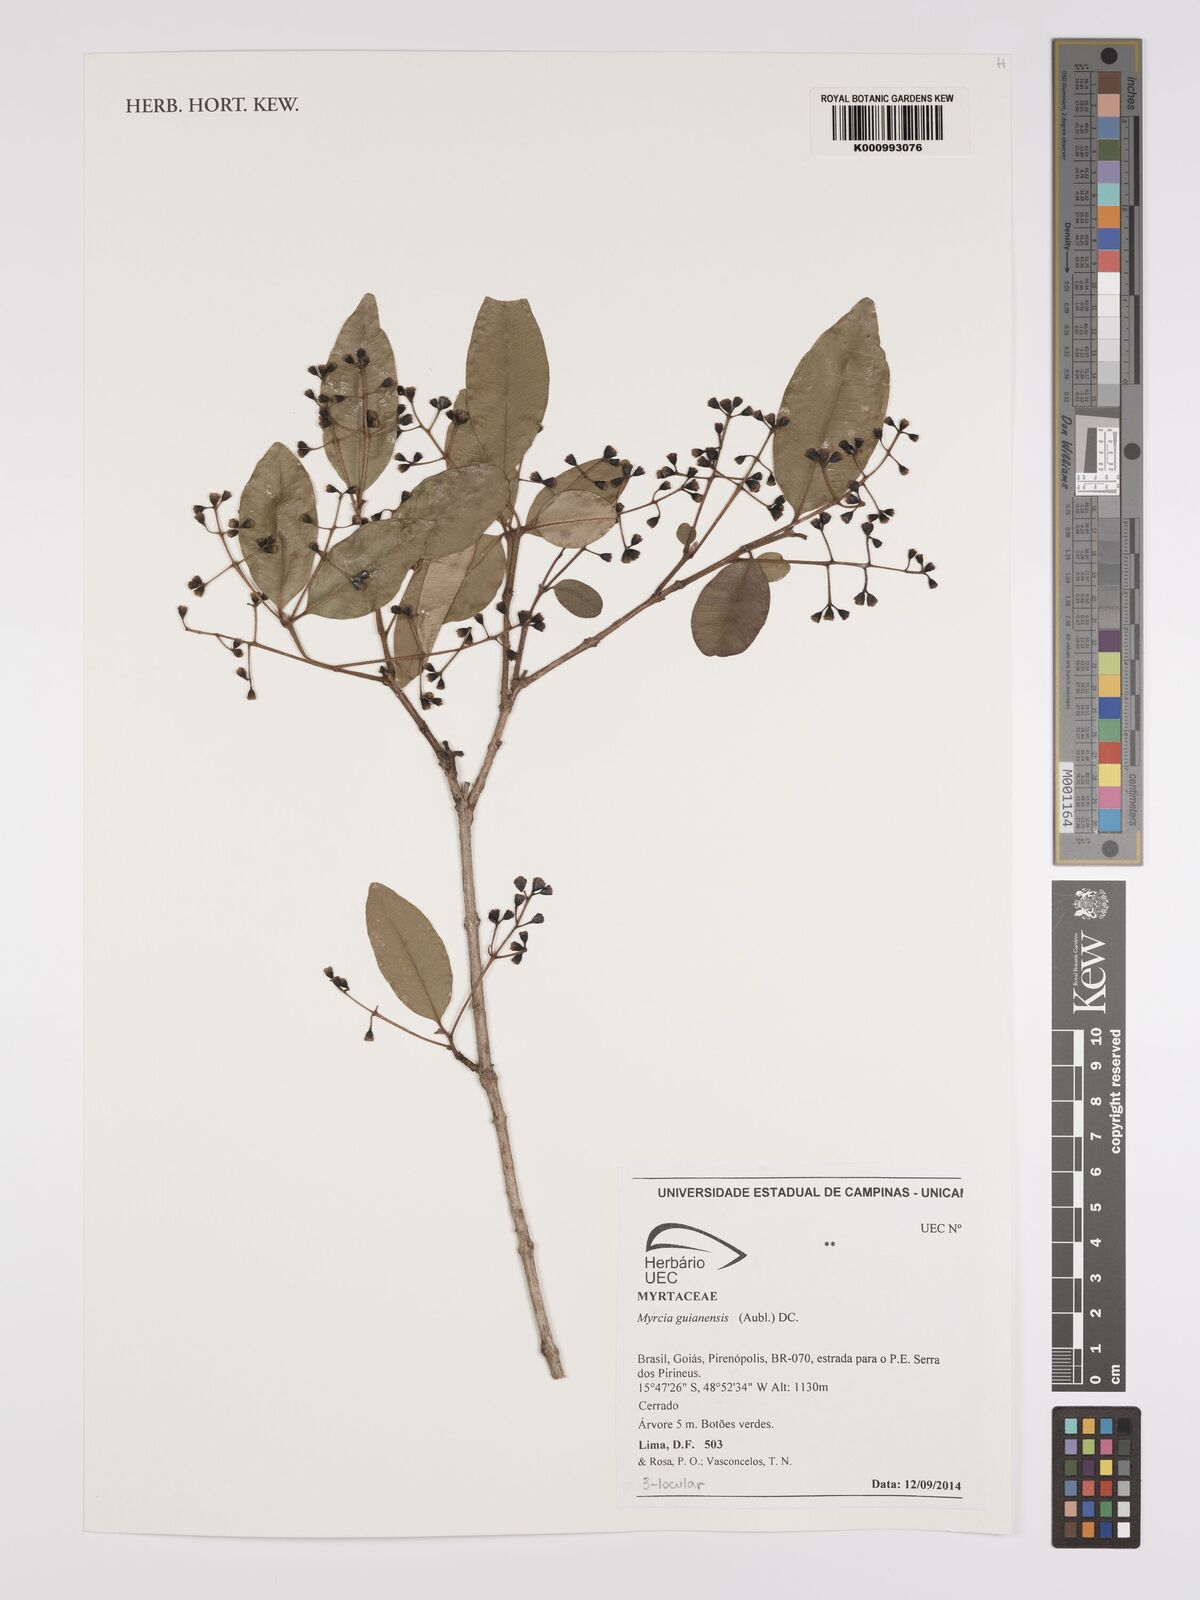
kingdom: Plantae
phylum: Tracheophyta
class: Magnoliopsida
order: Myrtales
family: Myrtaceae
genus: Myrcia
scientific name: Myrcia guianensis
